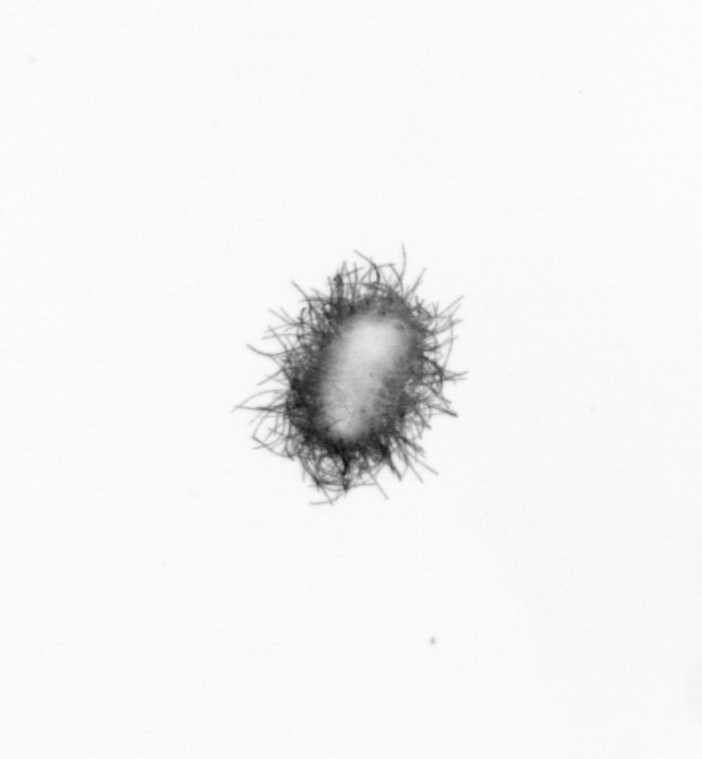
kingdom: Bacteria
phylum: Cyanobacteria
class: Cyanobacteriia
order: Cyanobacteriales
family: Microcoleaceae
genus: Trichodesmium
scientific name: Trichodesmium
